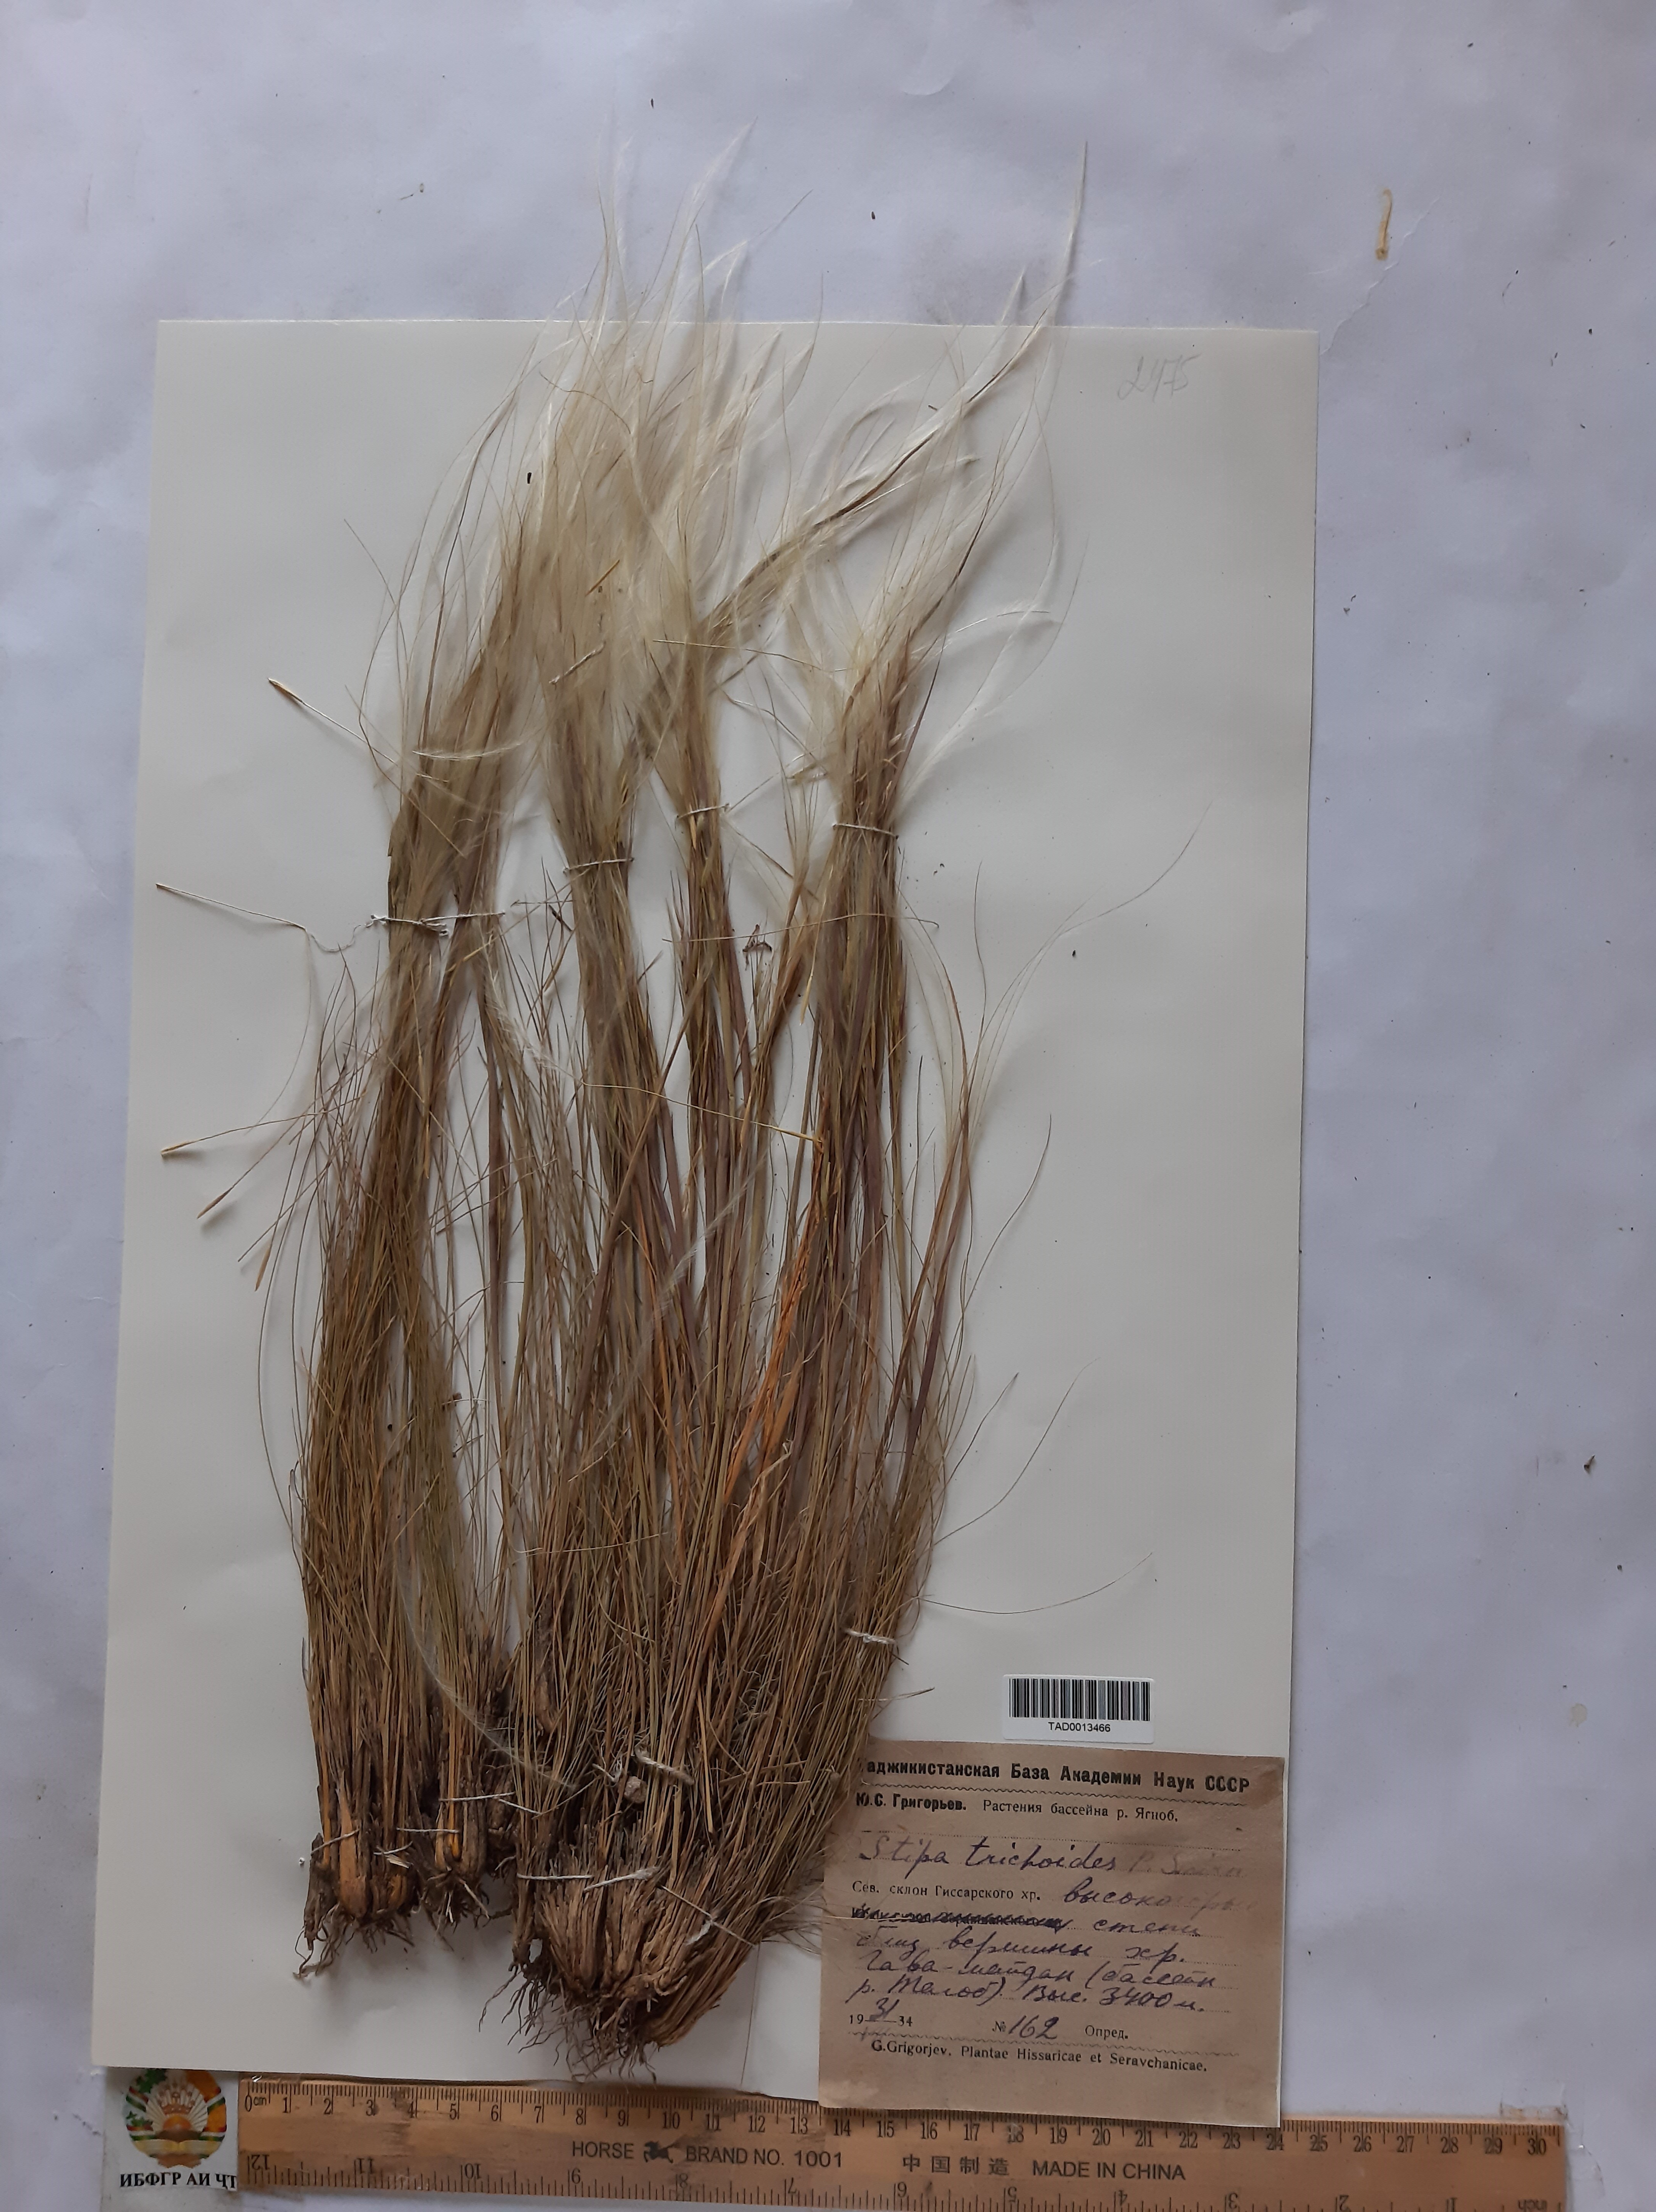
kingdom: Plantae
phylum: Tracheophyta
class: Liliopsida
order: Poales
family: Poaceae
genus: Stipa
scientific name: Stipa trichoides
